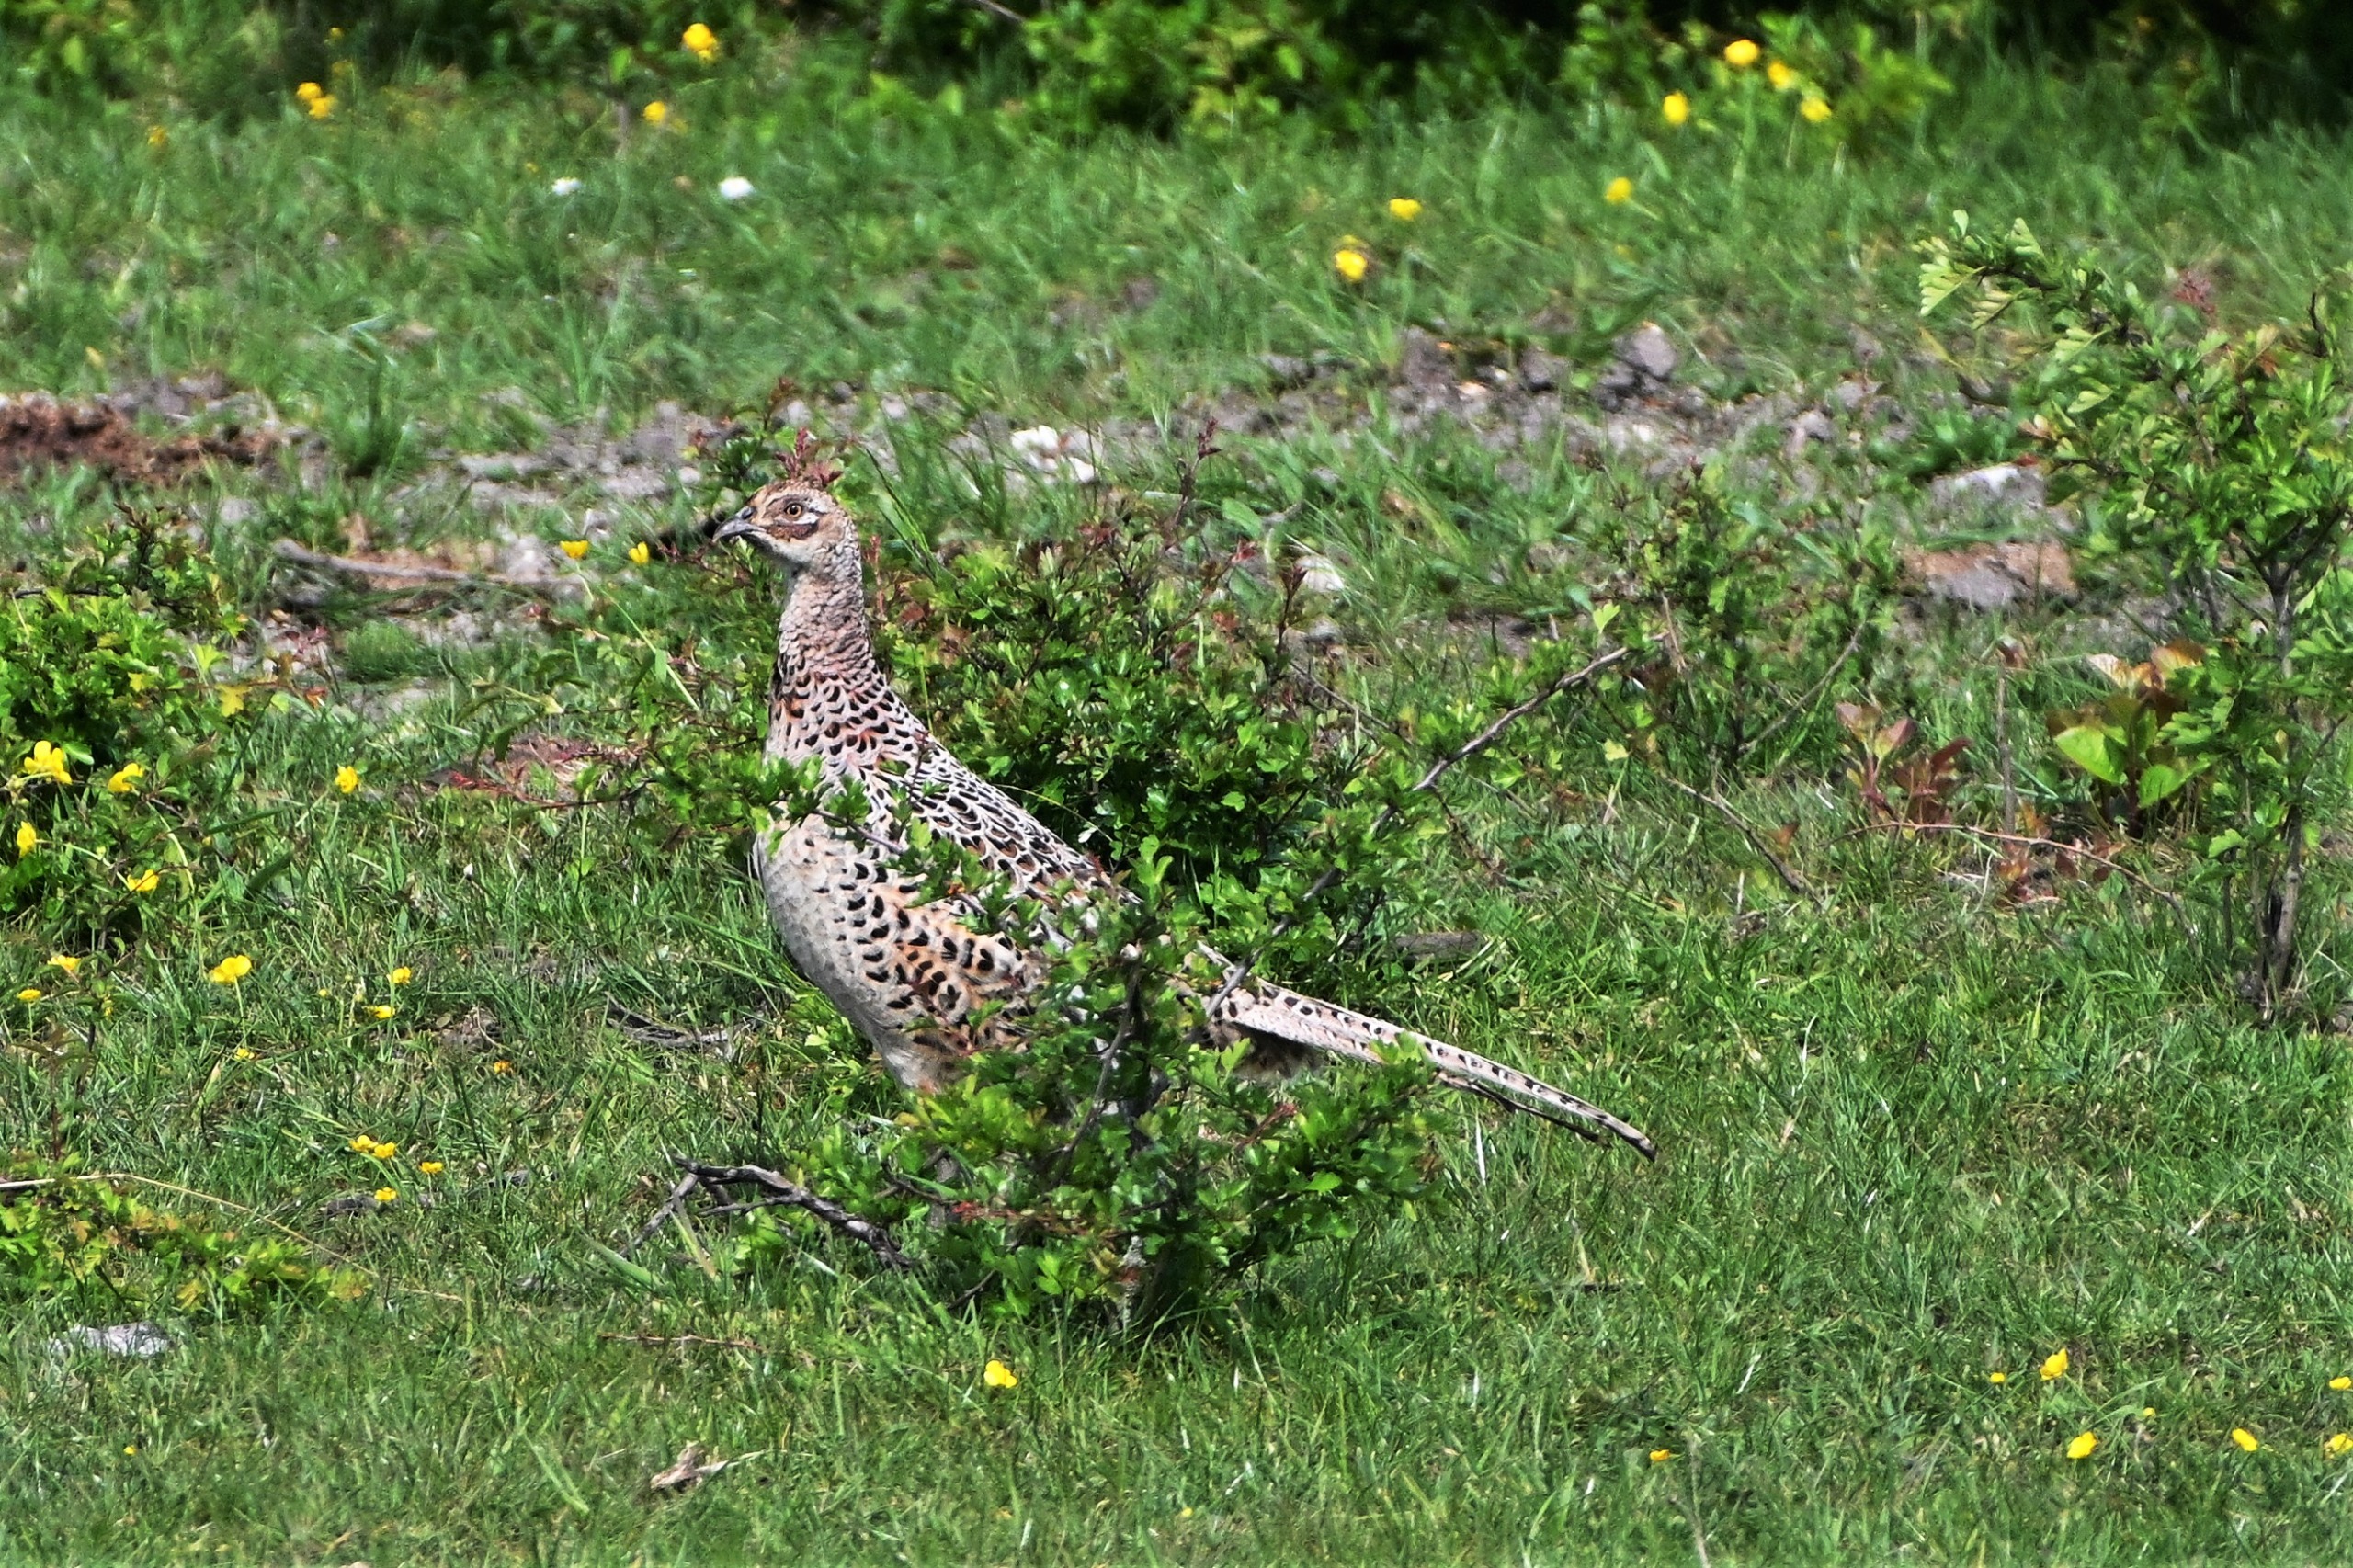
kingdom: Animalia
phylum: Chordata
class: Aves
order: Galliformes
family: Phasianidae
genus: Phasianus
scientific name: Phasianus colchicus
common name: Fasan
